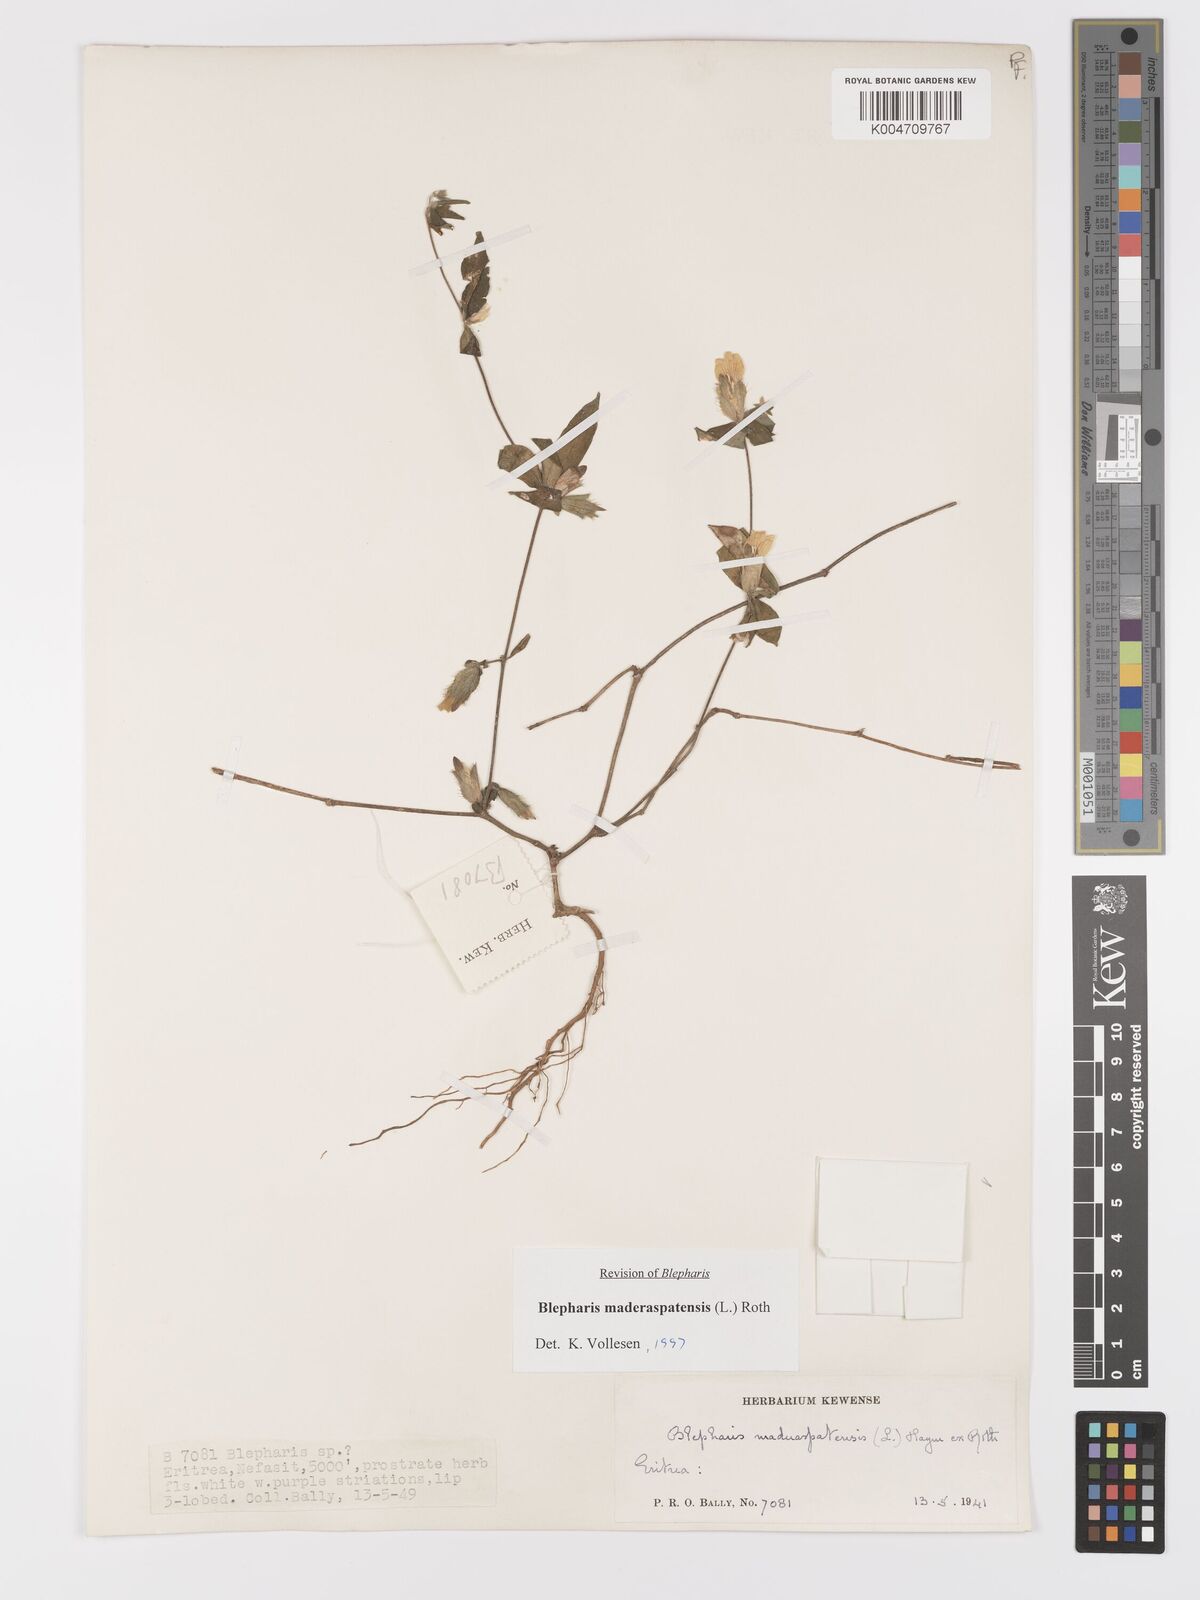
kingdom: Plantae
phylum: Tracheophyta
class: Magnoliopsida
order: Lamiales
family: Acanthaceae
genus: Blepharis
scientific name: Blepharis maderaspatensis
